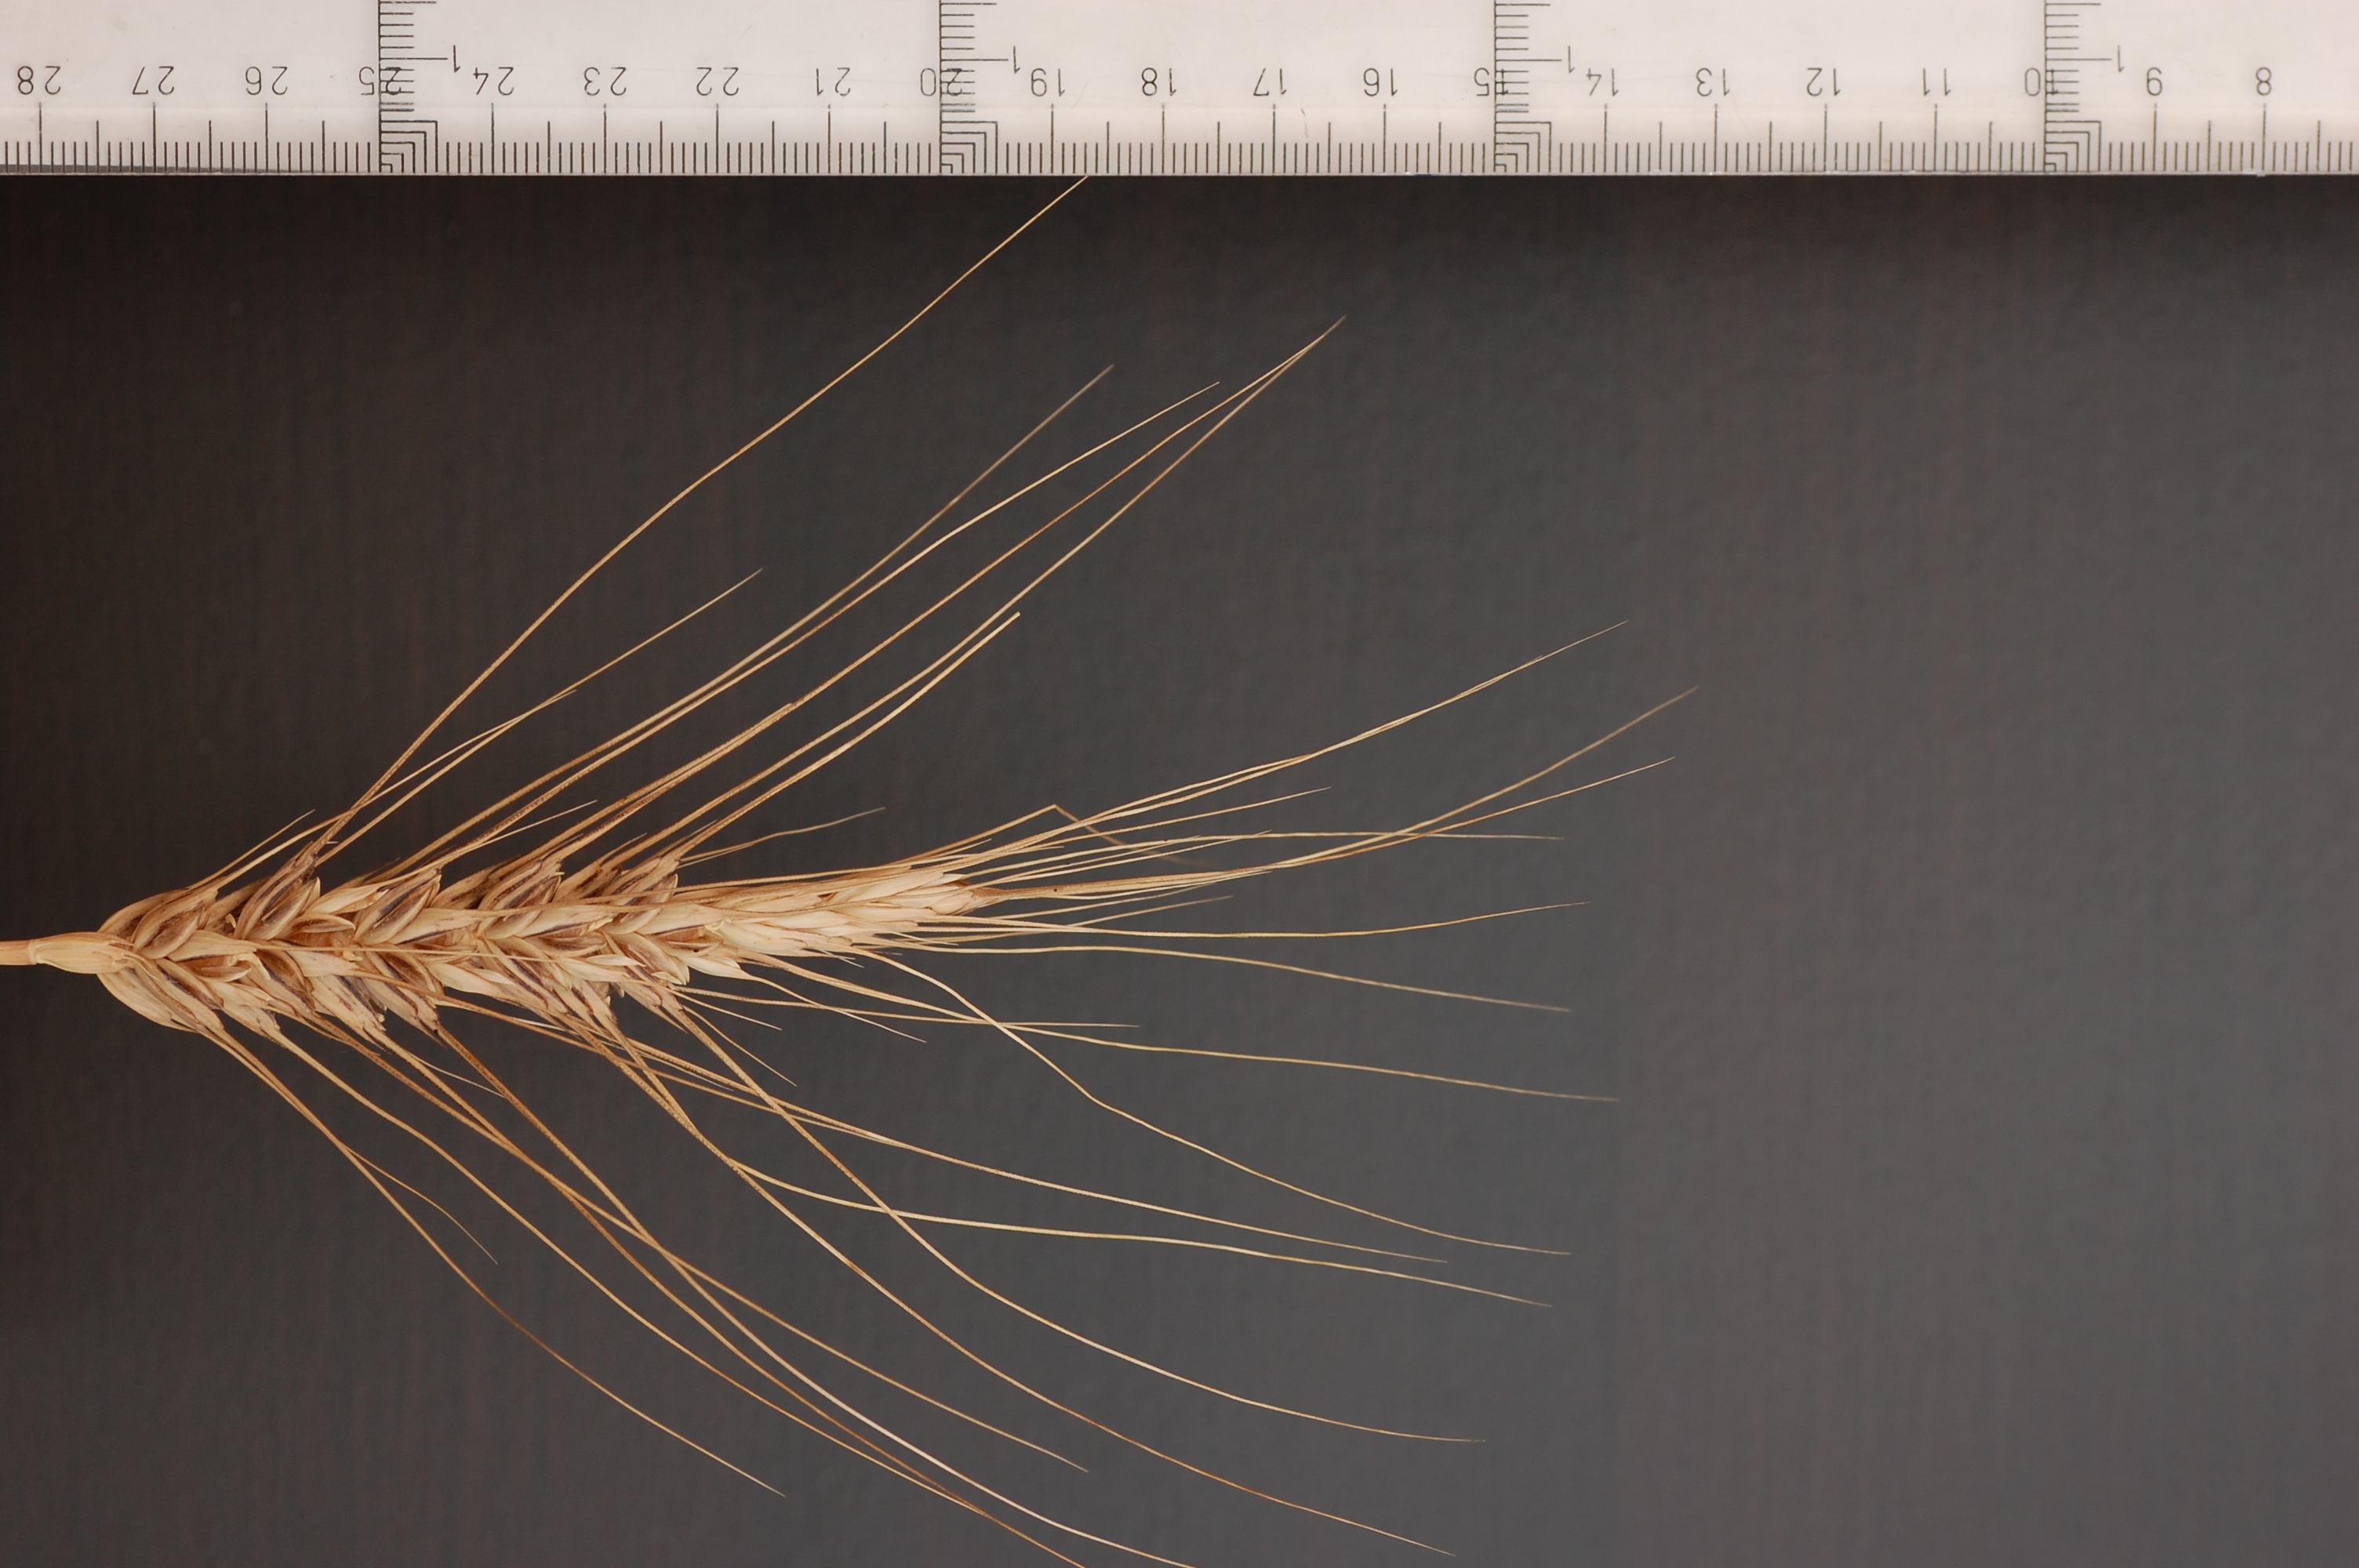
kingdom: Plantae
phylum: Tracheophyta
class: Liliopsida
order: Poales
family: Poaceae
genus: Triticum
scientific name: Triticum aestivum
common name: Common wheat
